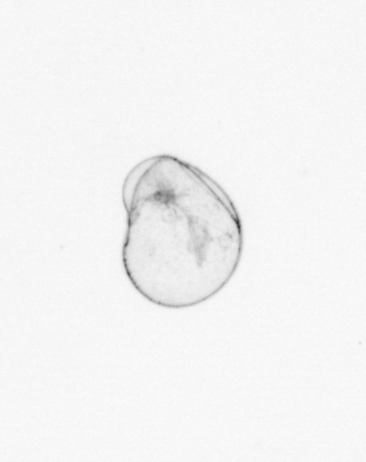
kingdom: Chromista
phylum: Myzozoa
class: Dinophyceae
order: Noctilucales
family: Noctilucaceae
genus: Noctiluca
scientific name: Noctiluca scintillans
